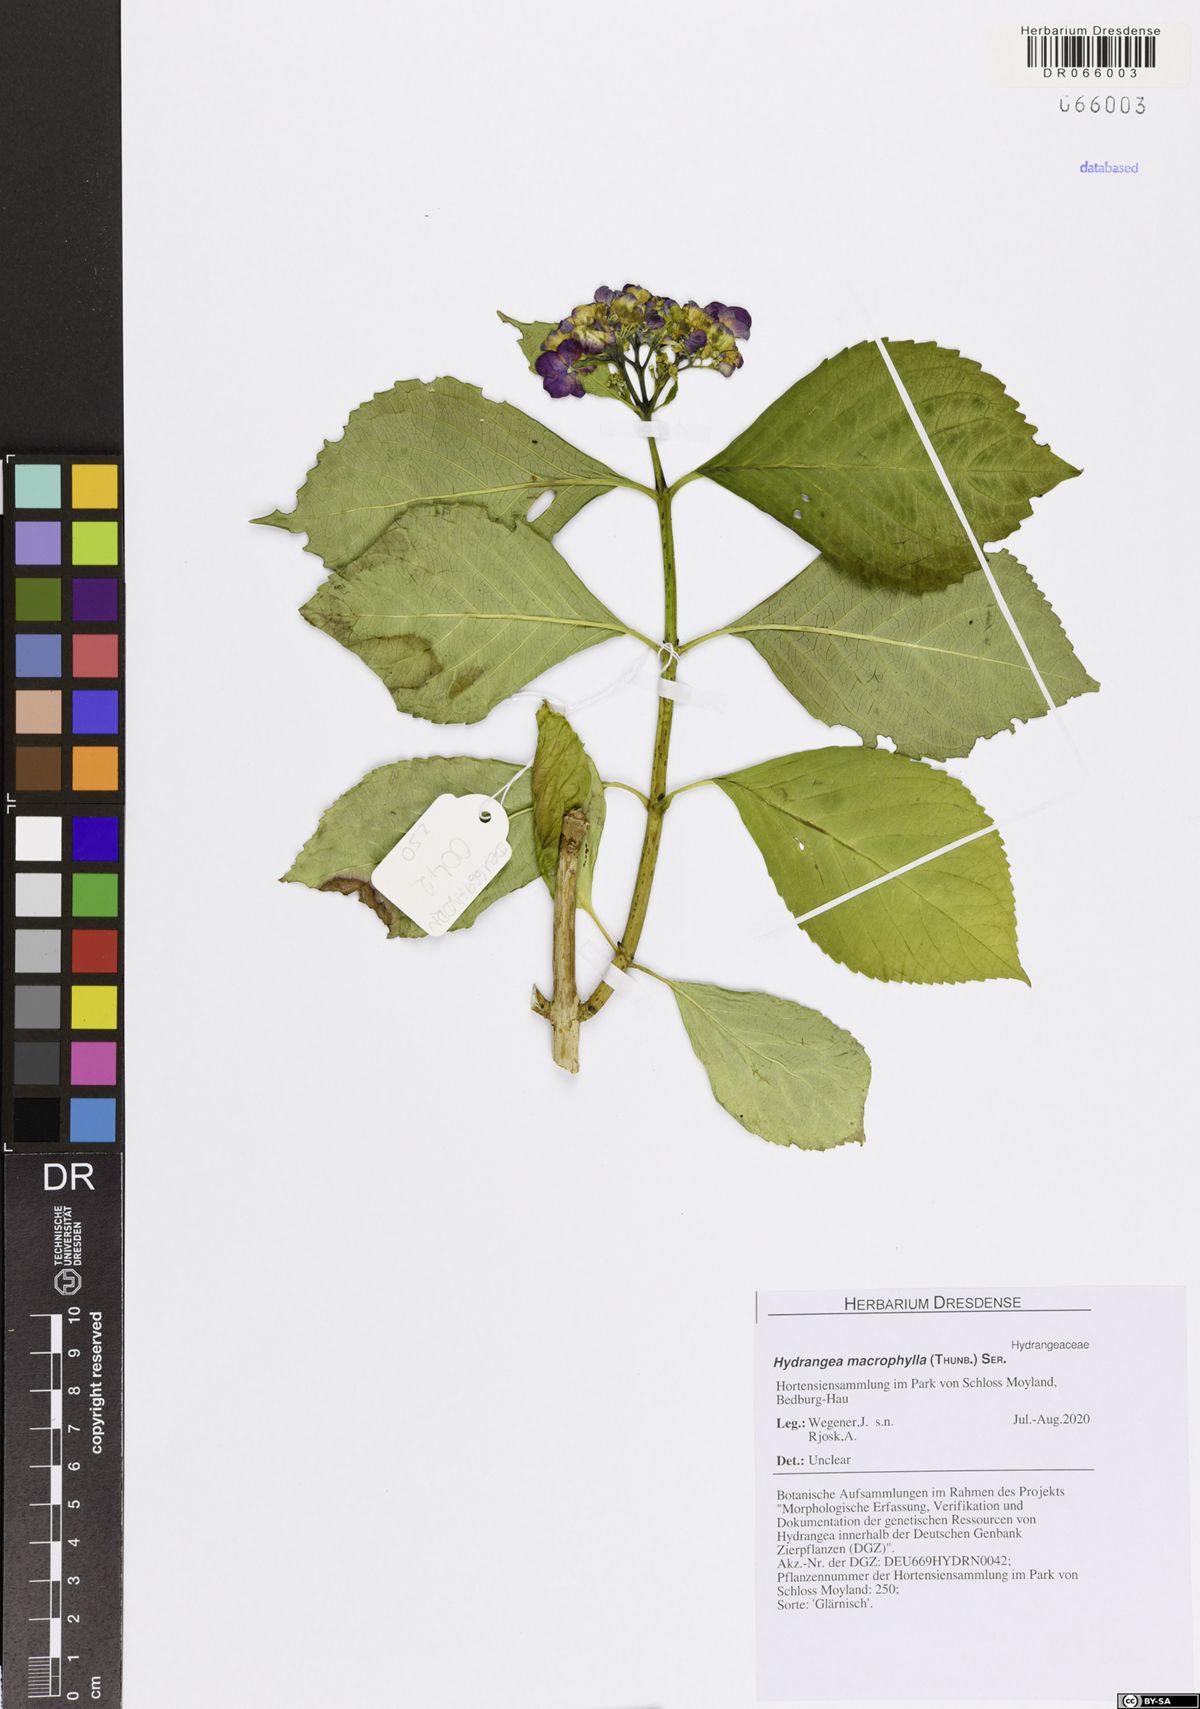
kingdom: Plantae
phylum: Tracheophyta
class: Magnoliopsida
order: Cornales
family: Hydrangeaceae
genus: Hydrangea
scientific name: Hydrangea macrophylla
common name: Hydrangea
